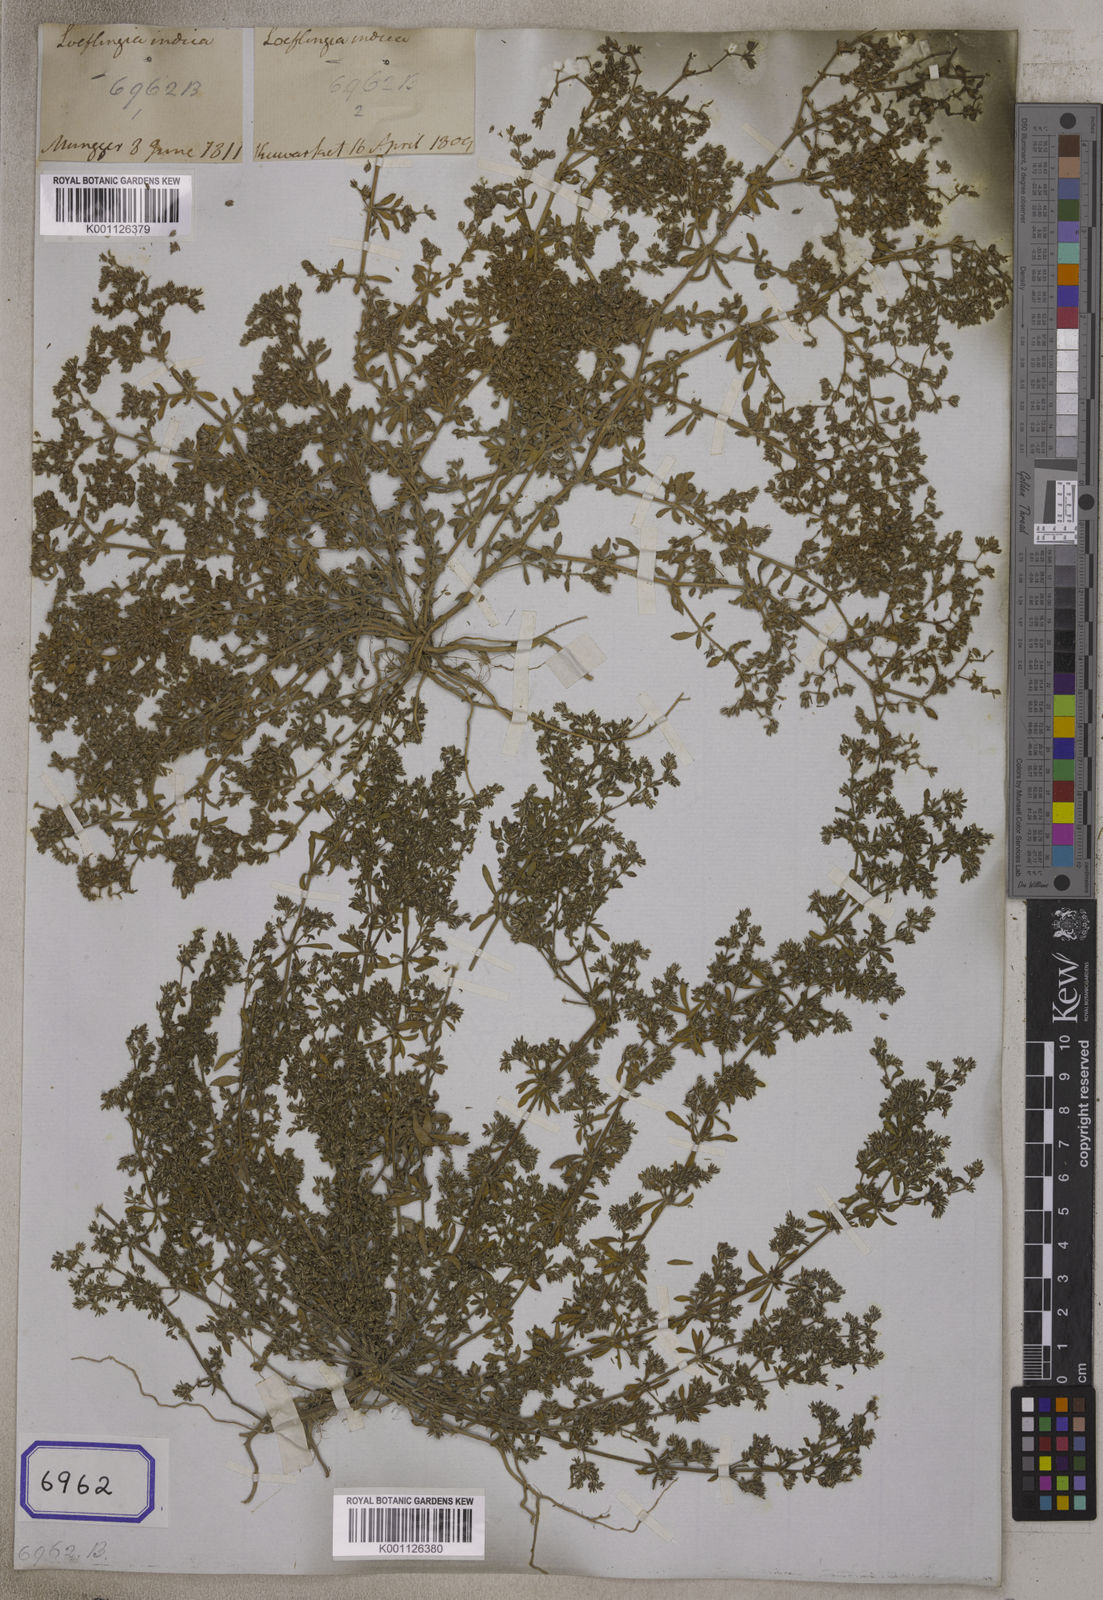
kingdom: Plantae
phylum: Tracheophyta
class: Magnoliopsida
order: Caryophyllales
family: Caryophyllaceae
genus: Hapalosia
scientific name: Hapalosia
